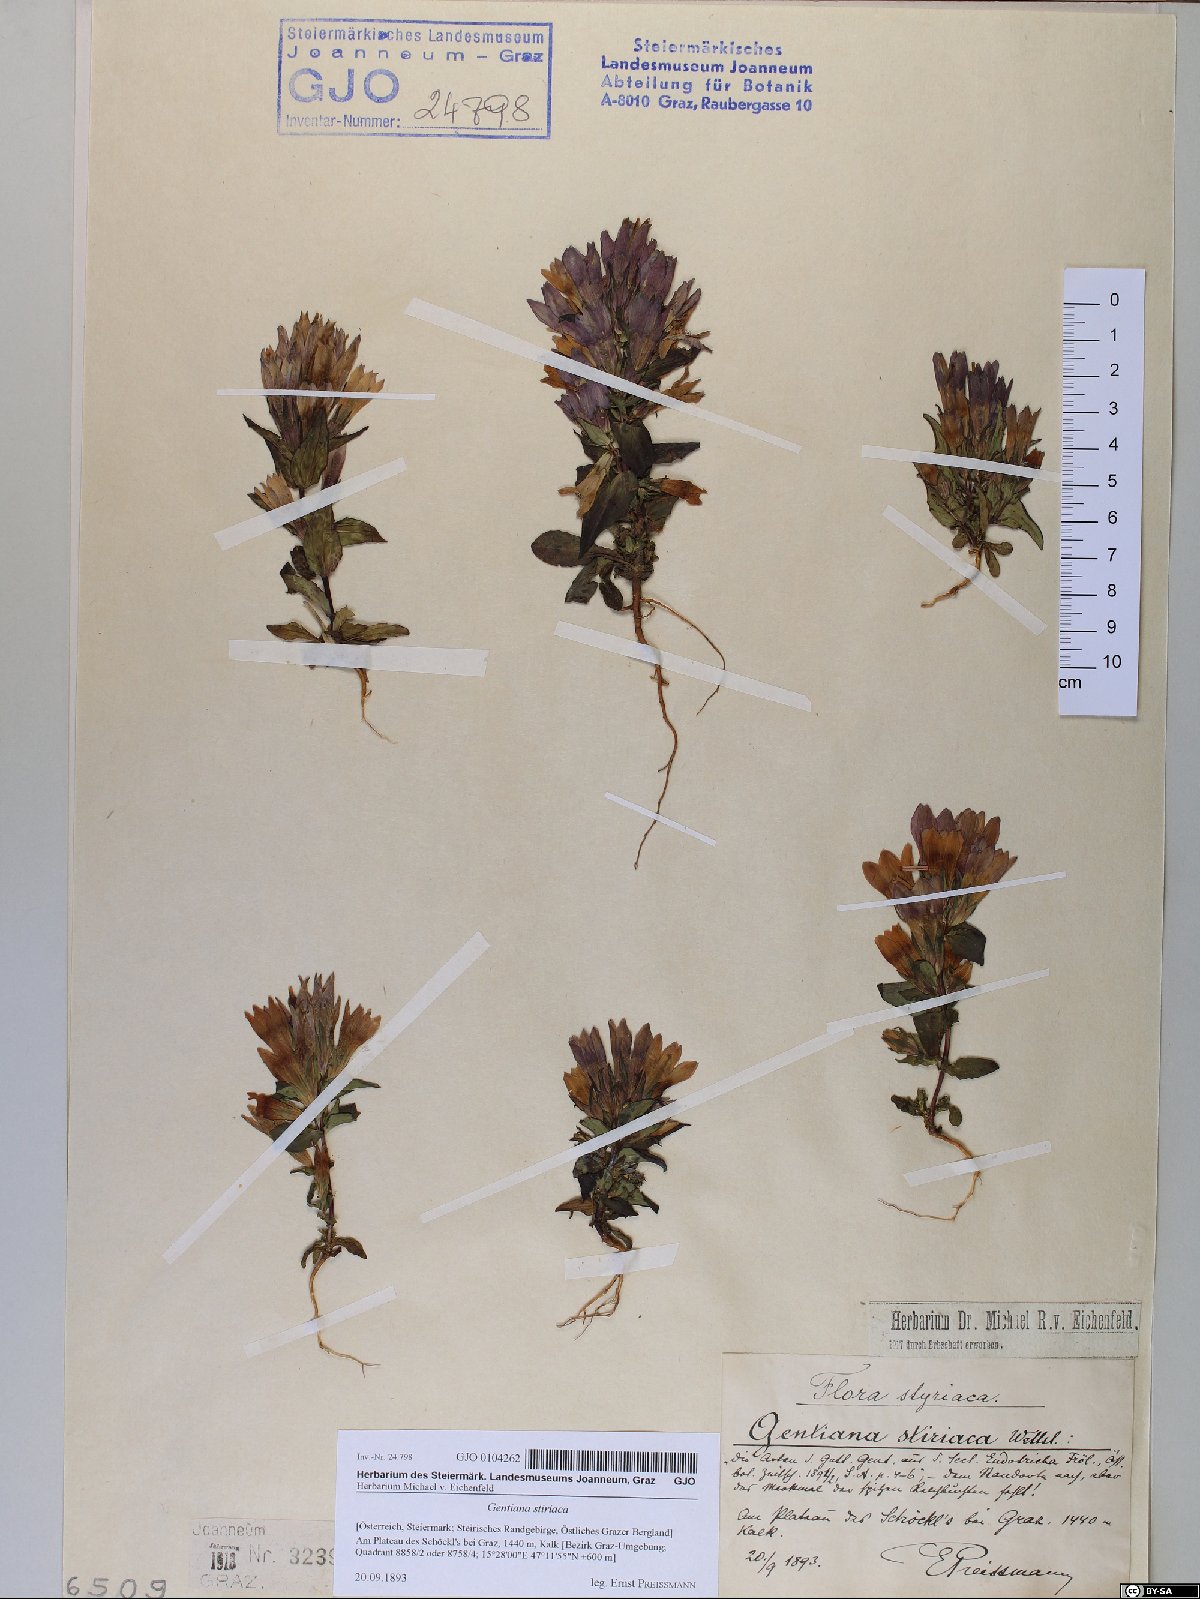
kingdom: Plantae
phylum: Tracheophyta
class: Magnoliopsida
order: Gentianales
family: Gentianaceae
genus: Gentianella
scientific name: Gentianella rhaetica
